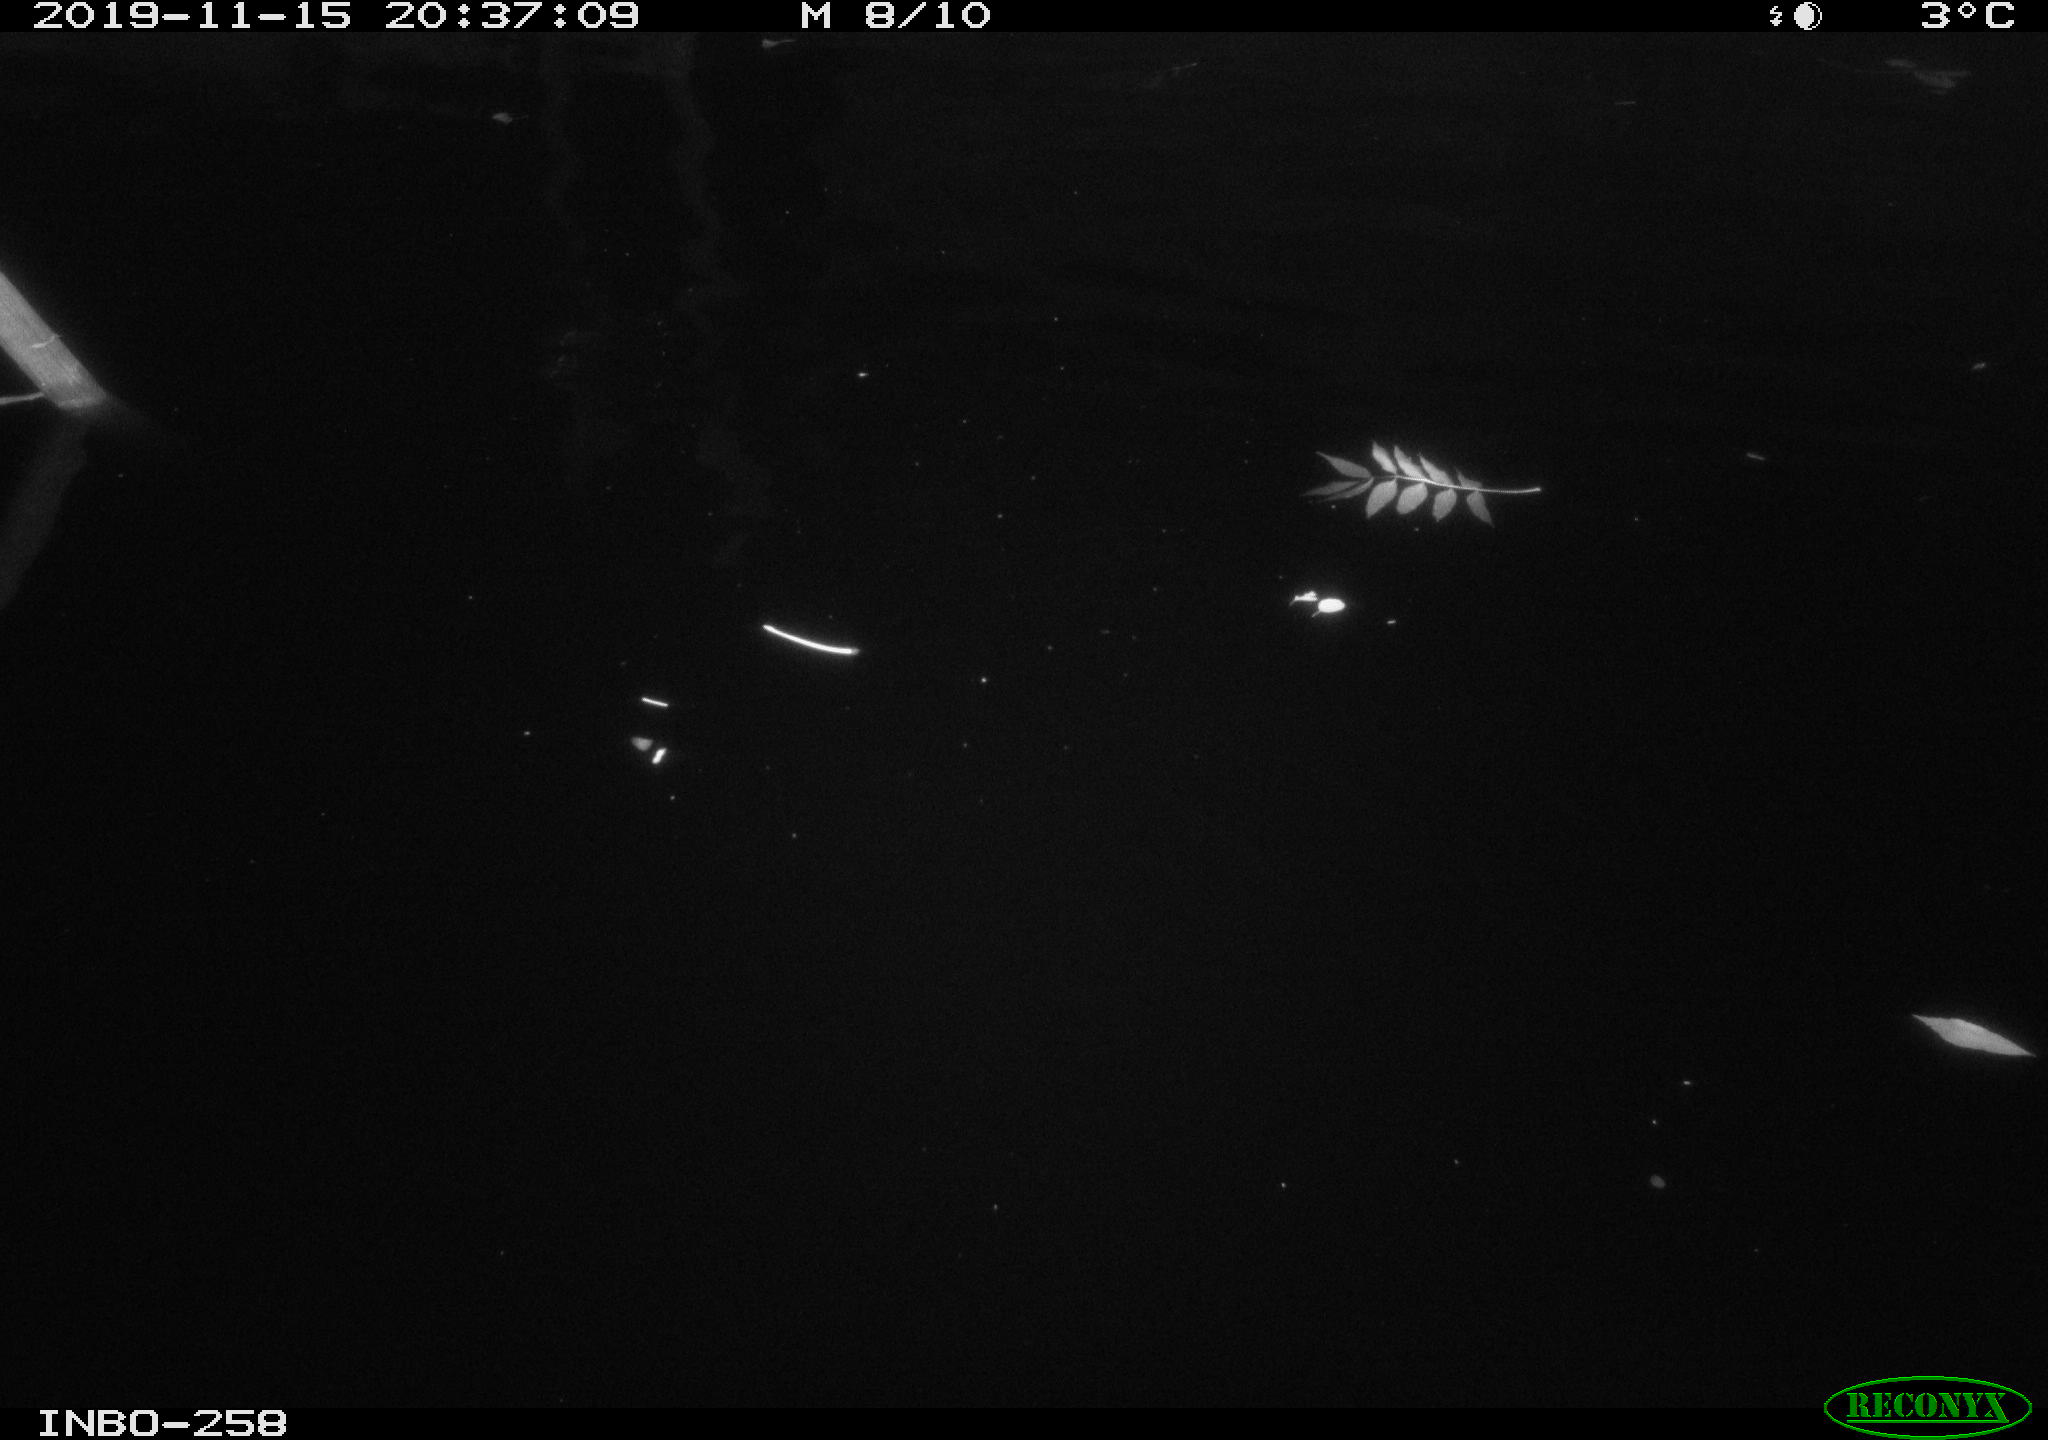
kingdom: Animalia
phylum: Chordata
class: Aves
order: Anseriformes
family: Anatidae
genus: Anas
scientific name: Anas platyrhynchos
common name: Mallard
